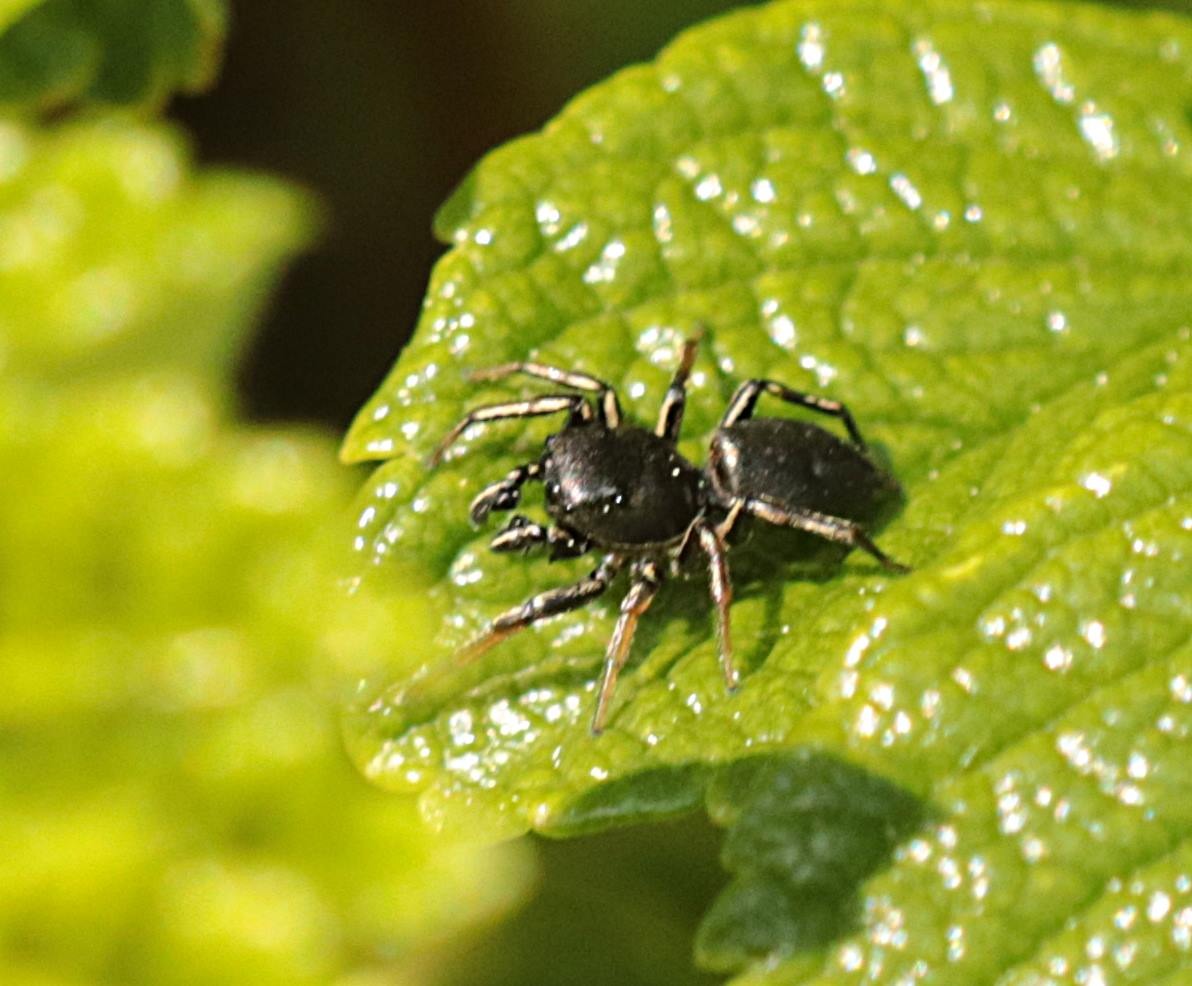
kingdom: Animalia
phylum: Arthropoda
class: Arachnida
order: Araneae
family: Salticidae
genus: Heliophanus
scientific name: Heliophanus
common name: Sortspringerslægten
